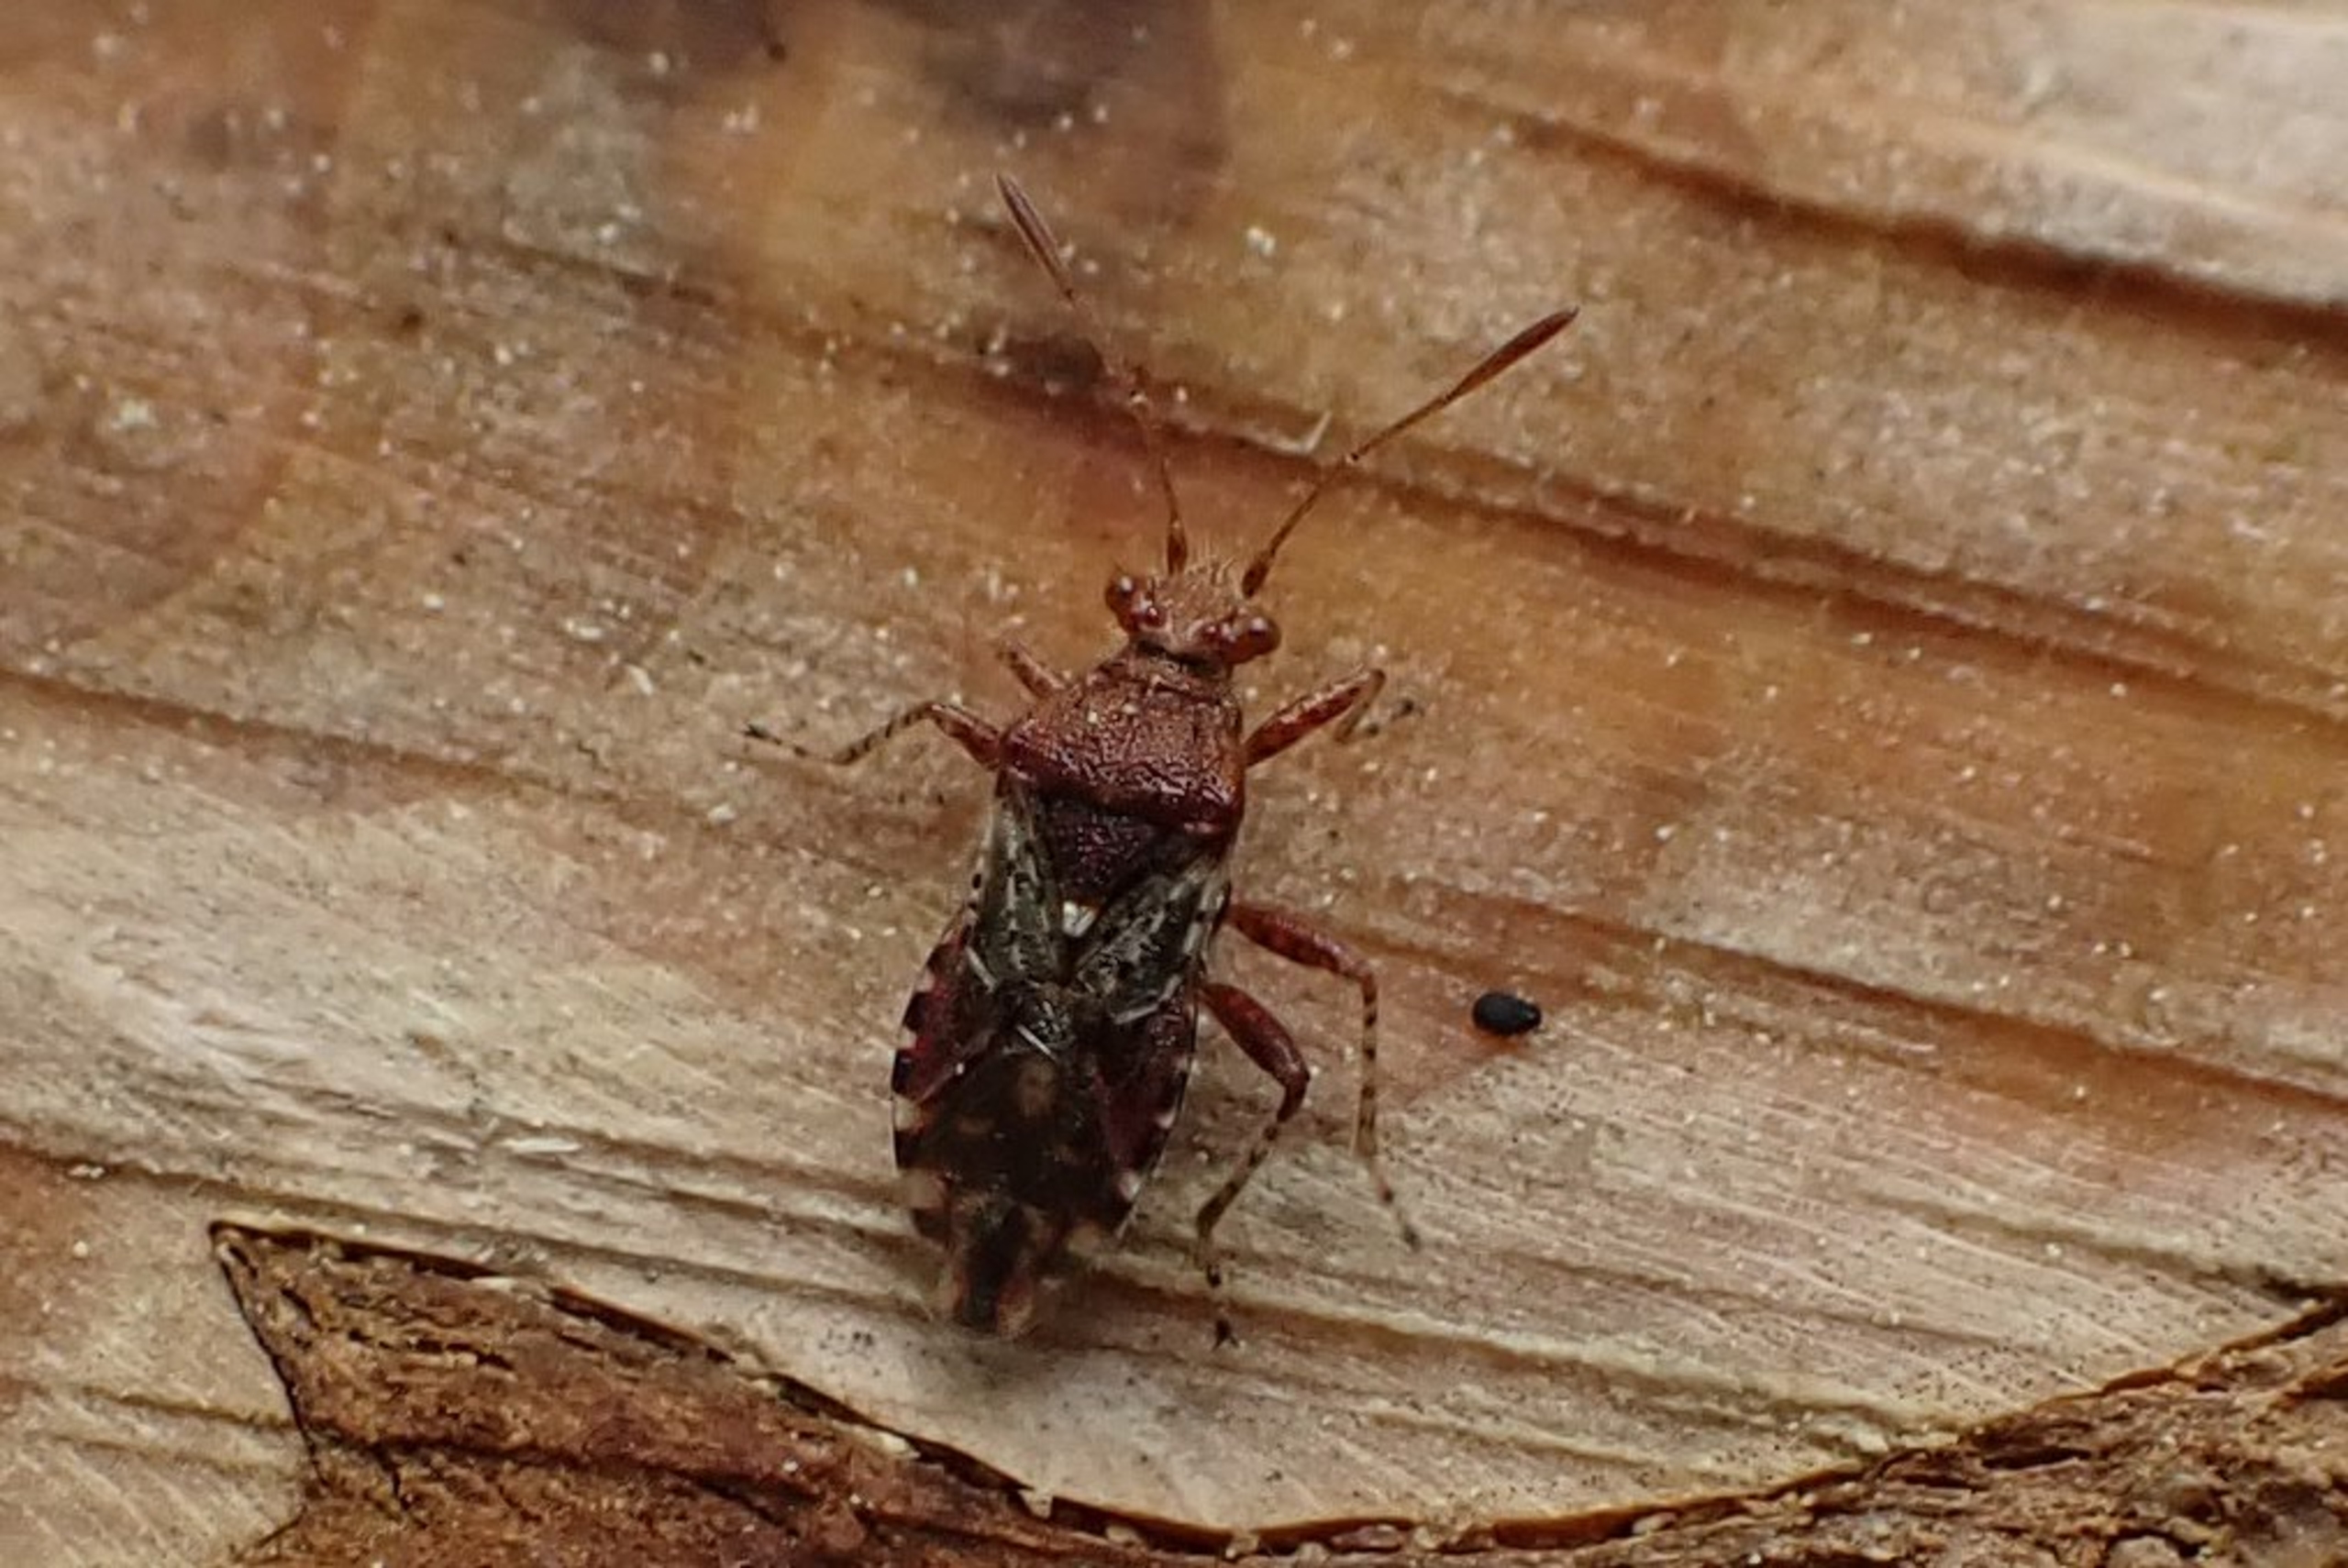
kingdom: Animalia
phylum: Arthropoda
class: Insecta
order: Hemiptera
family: Rhopalidae
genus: Rhopalus
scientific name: Rhopalus subrufus
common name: Skovkanttæge
